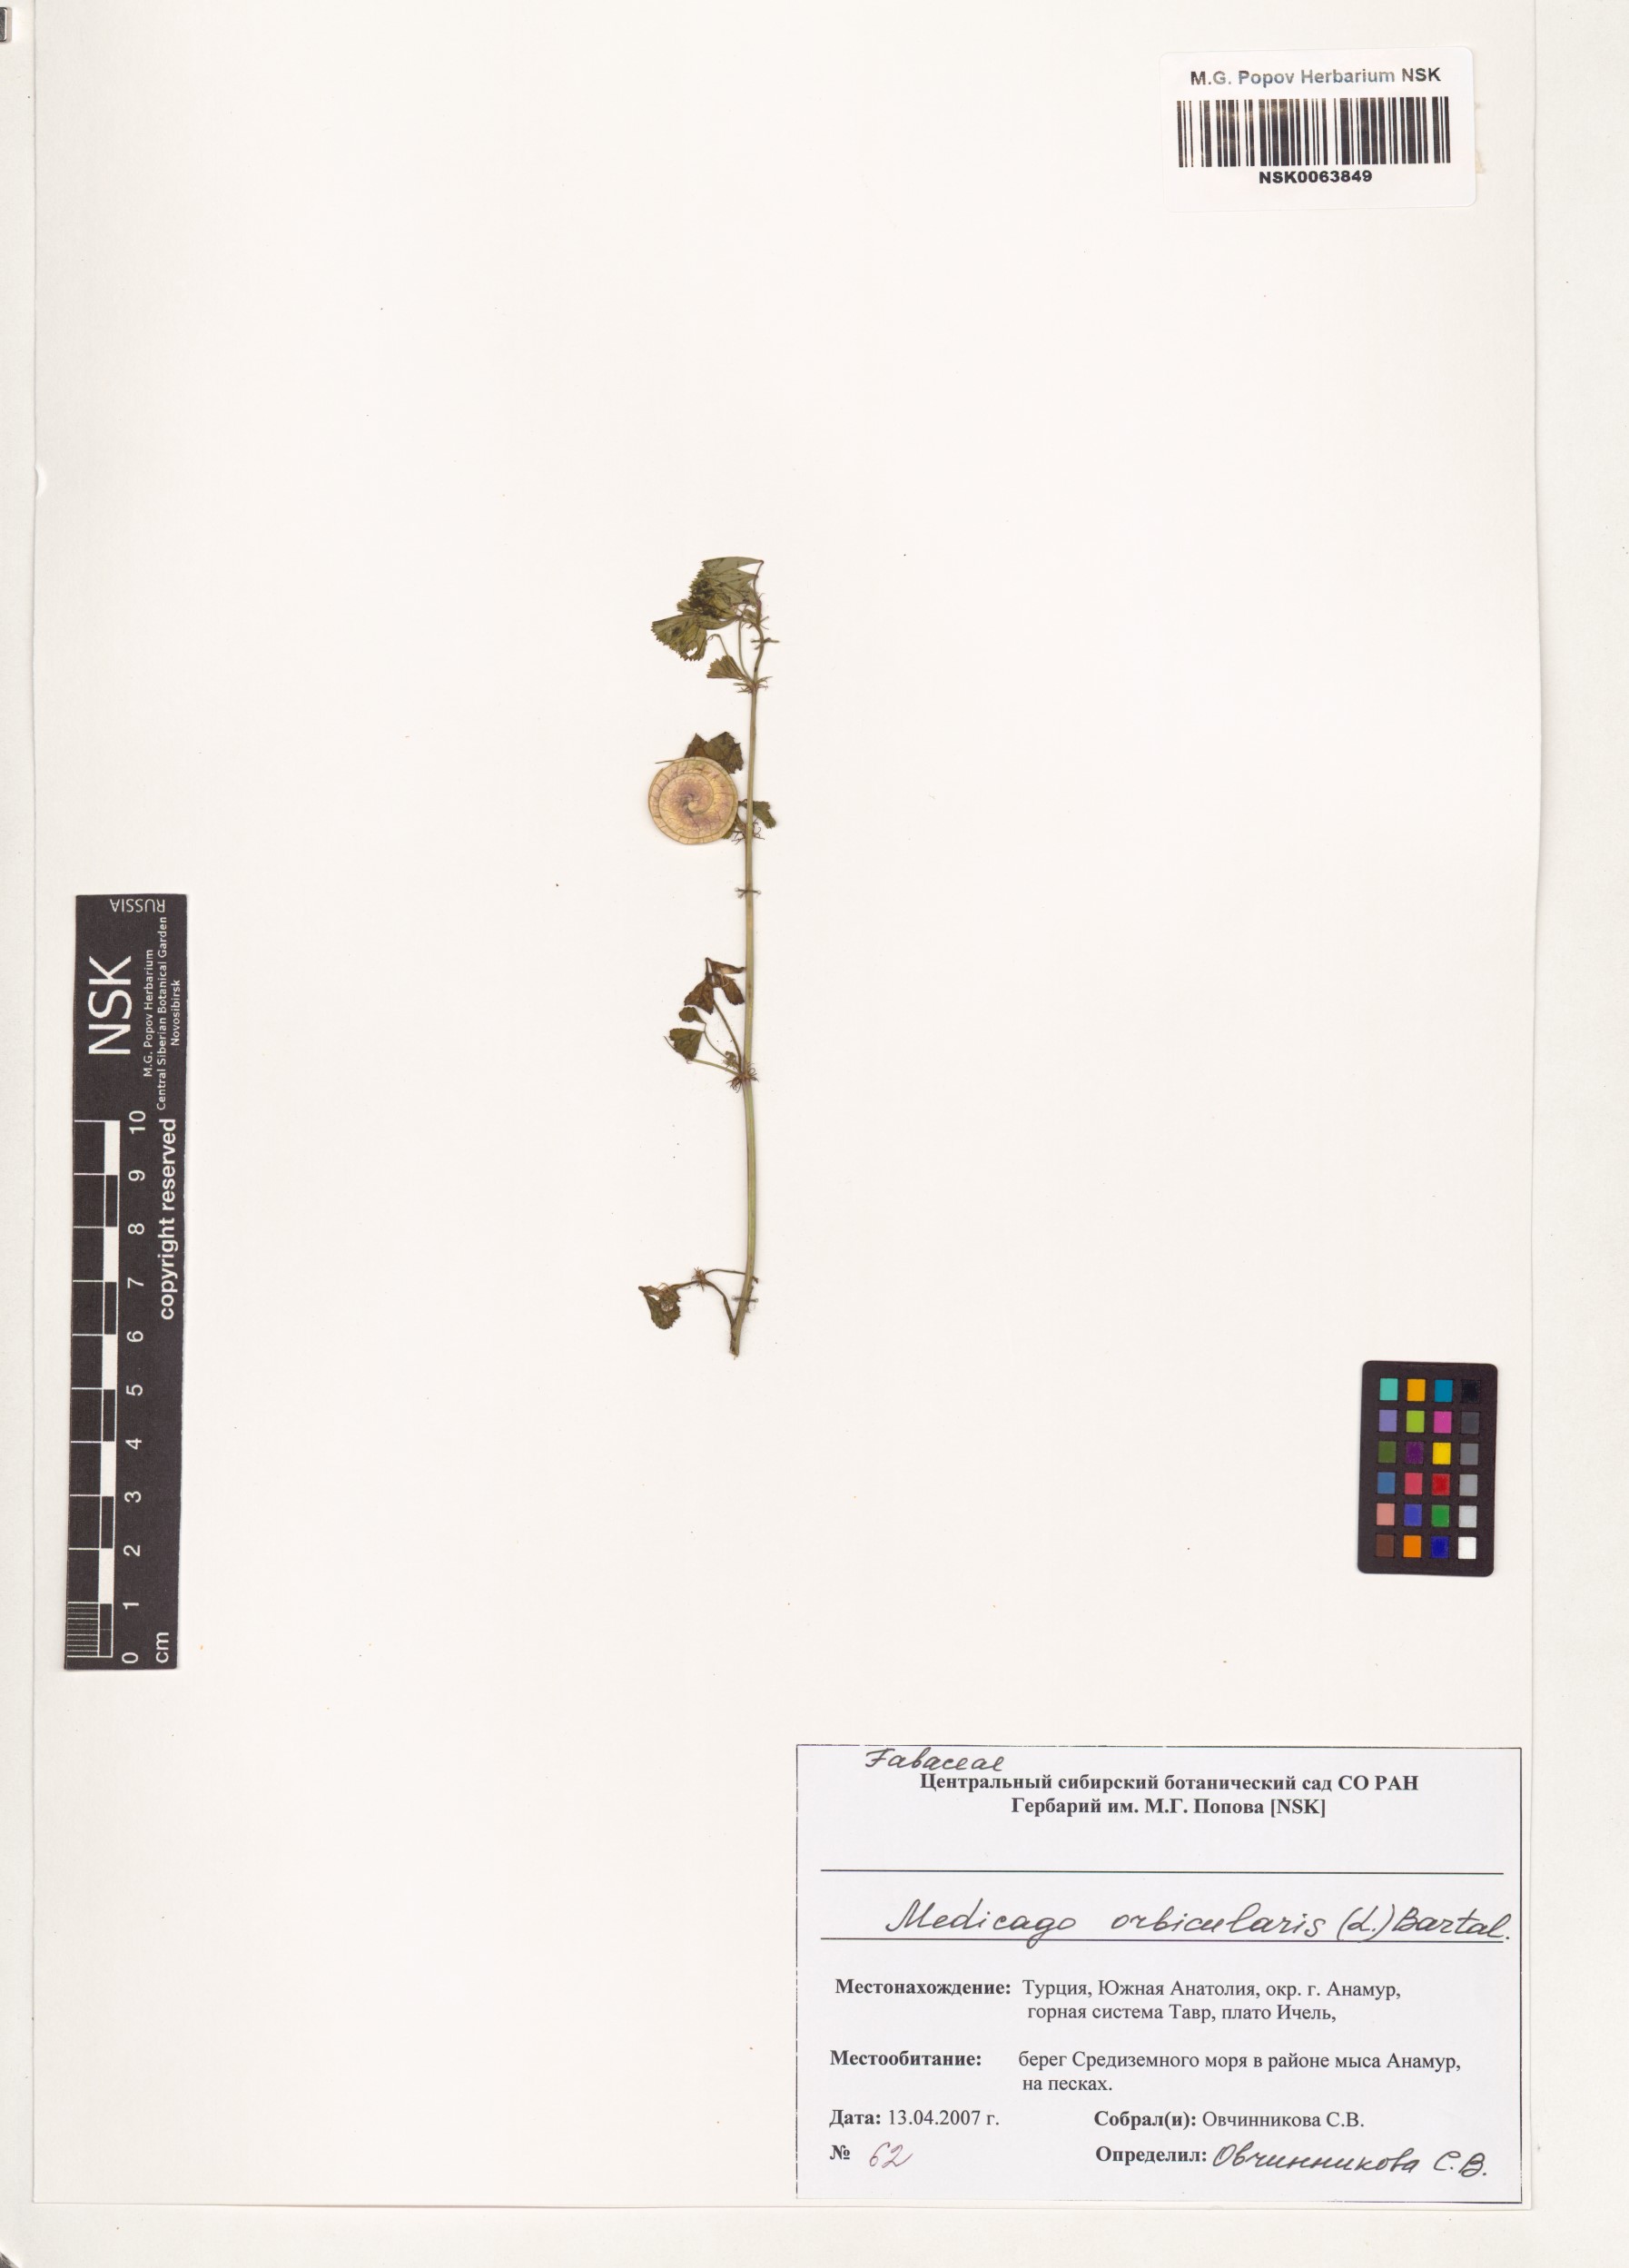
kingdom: Plantae
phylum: Tracheophyta
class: Magnoliopsida
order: Fabales
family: Fabaceae
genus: Medicago
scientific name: Medicago orbicularis
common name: Button medick
